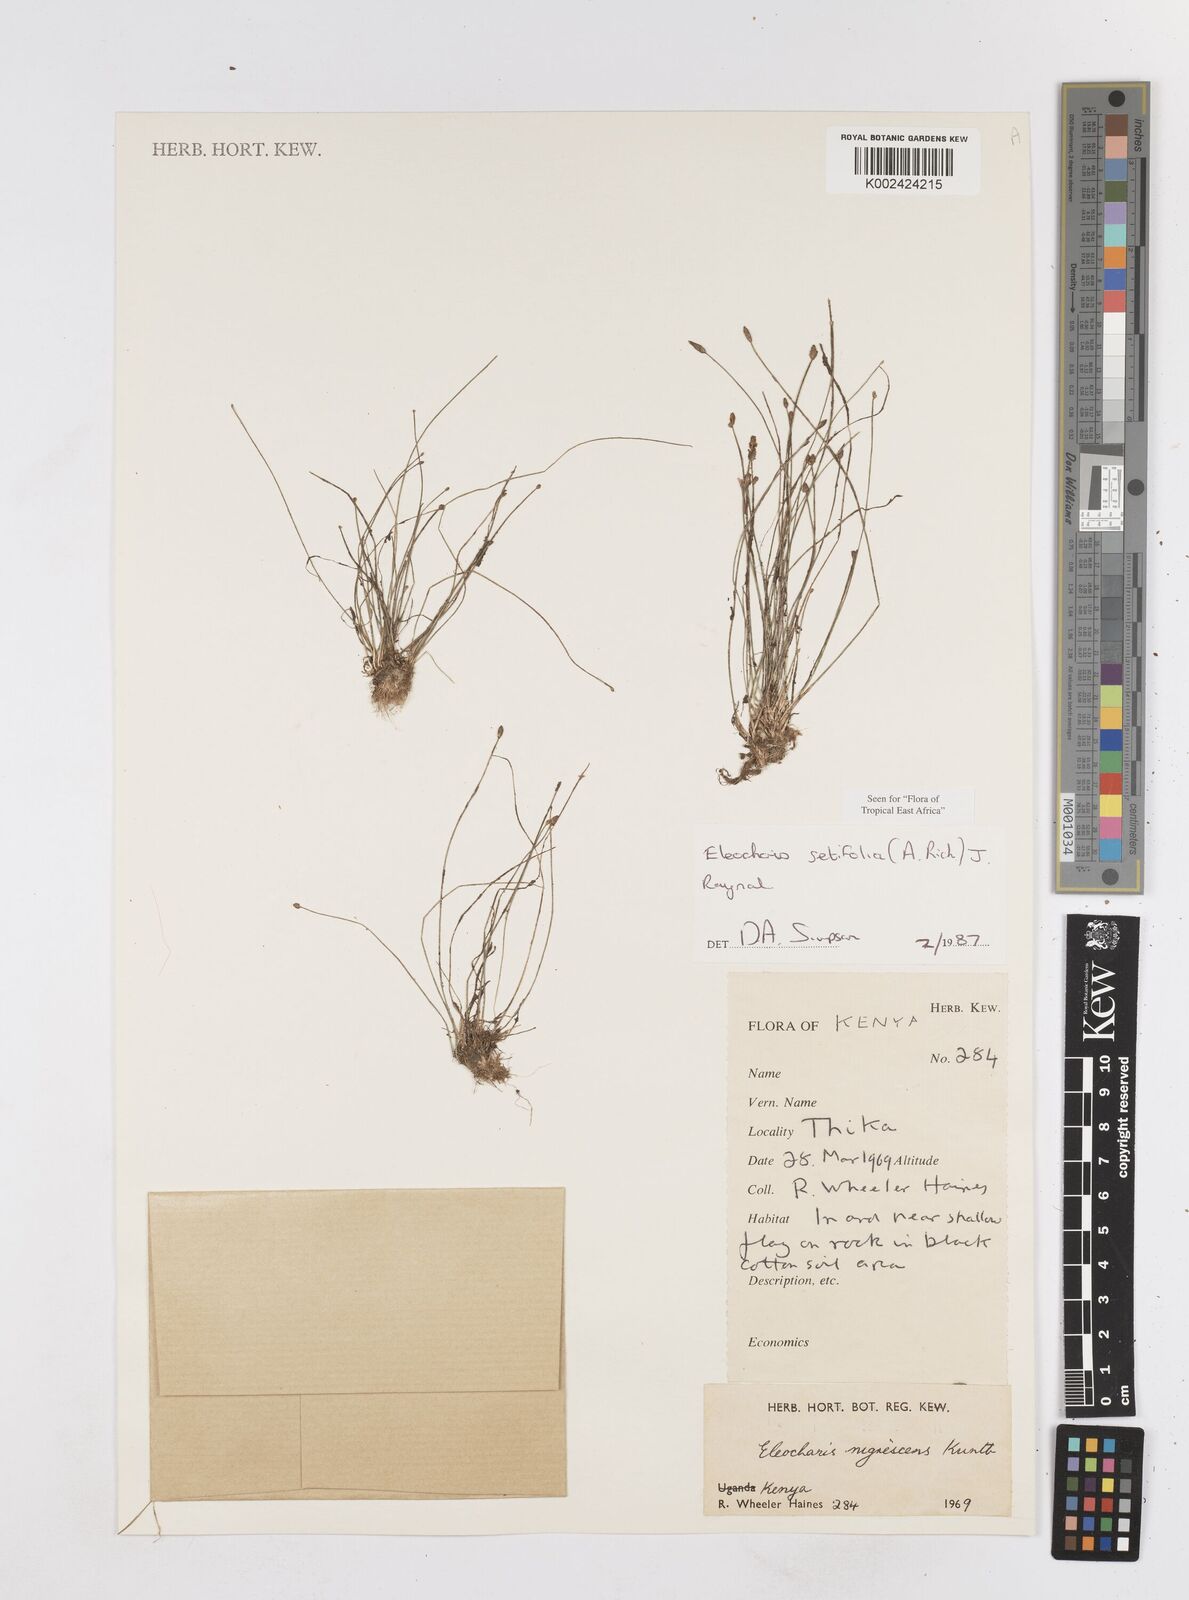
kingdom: Plantae
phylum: Tracheophyta
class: Liliopsida
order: Poales
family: Cyperaceae
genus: Eleocharis
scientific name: Eleocharis setifolia
